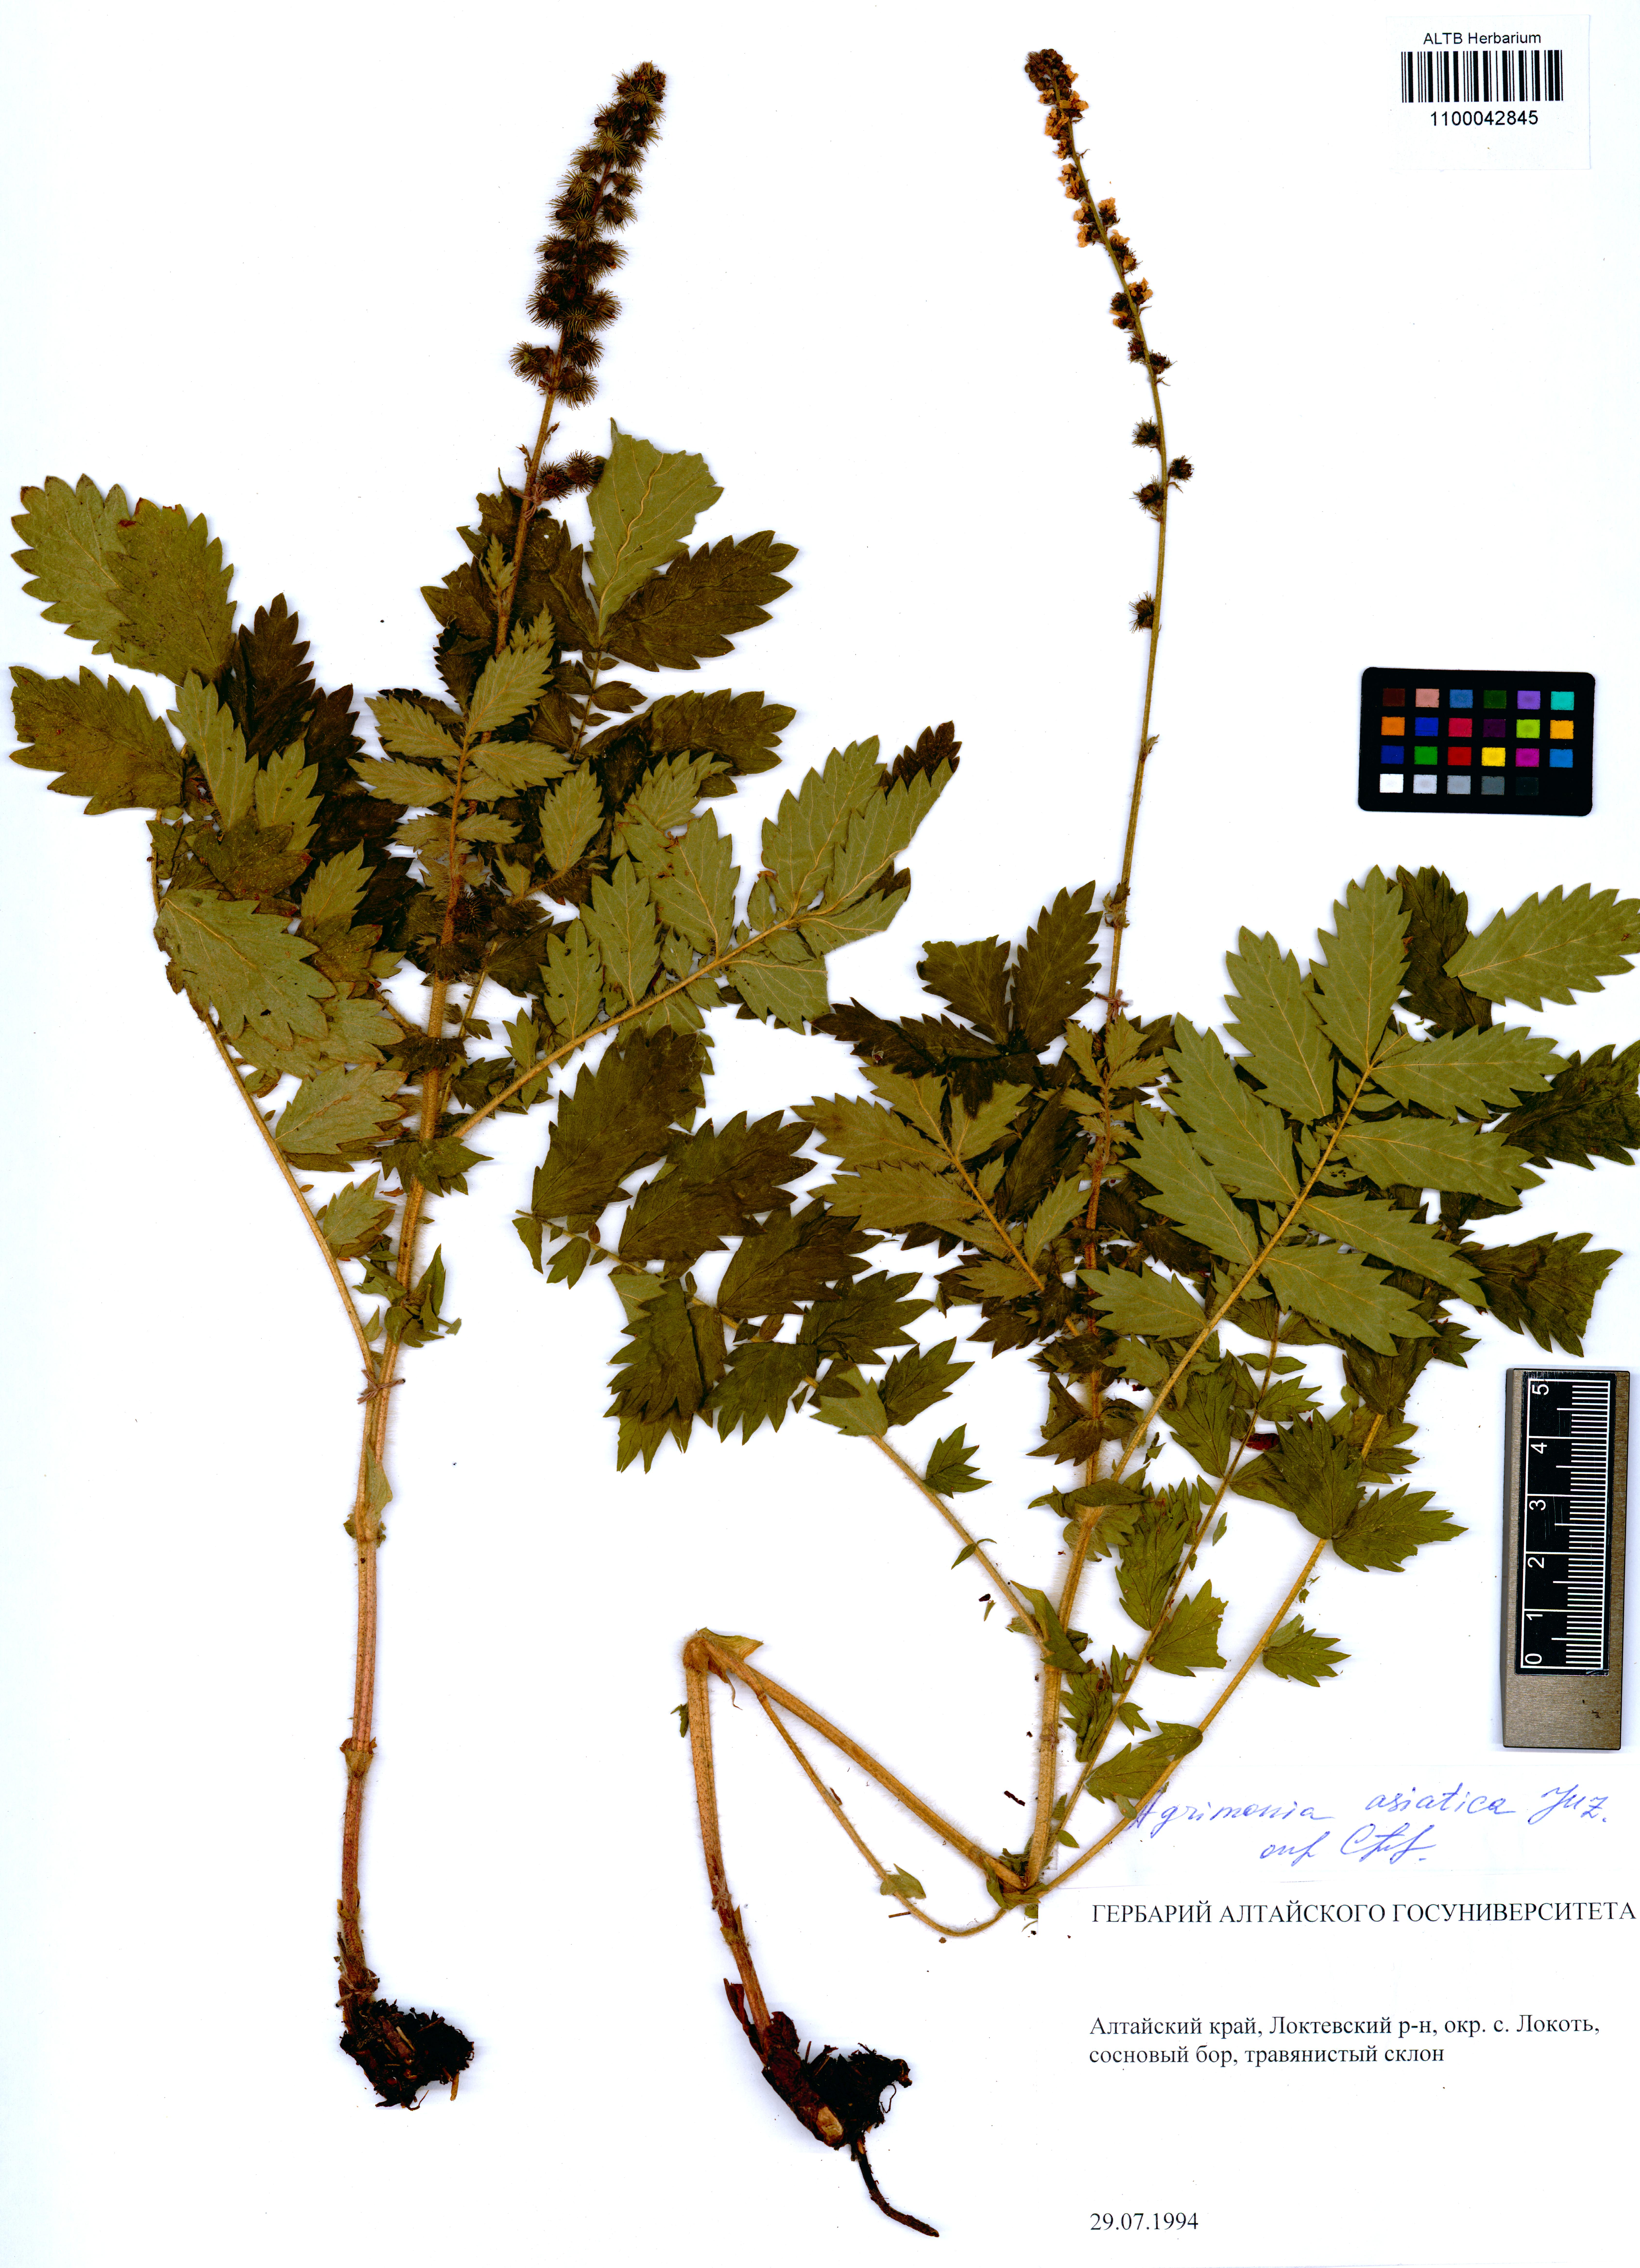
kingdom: Plantae
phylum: Tracheophyta
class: Magnoliopsida
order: Rosales
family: Rosaceae
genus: Agrimonia
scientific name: Agrimonia eupatoria
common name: Agrimony
